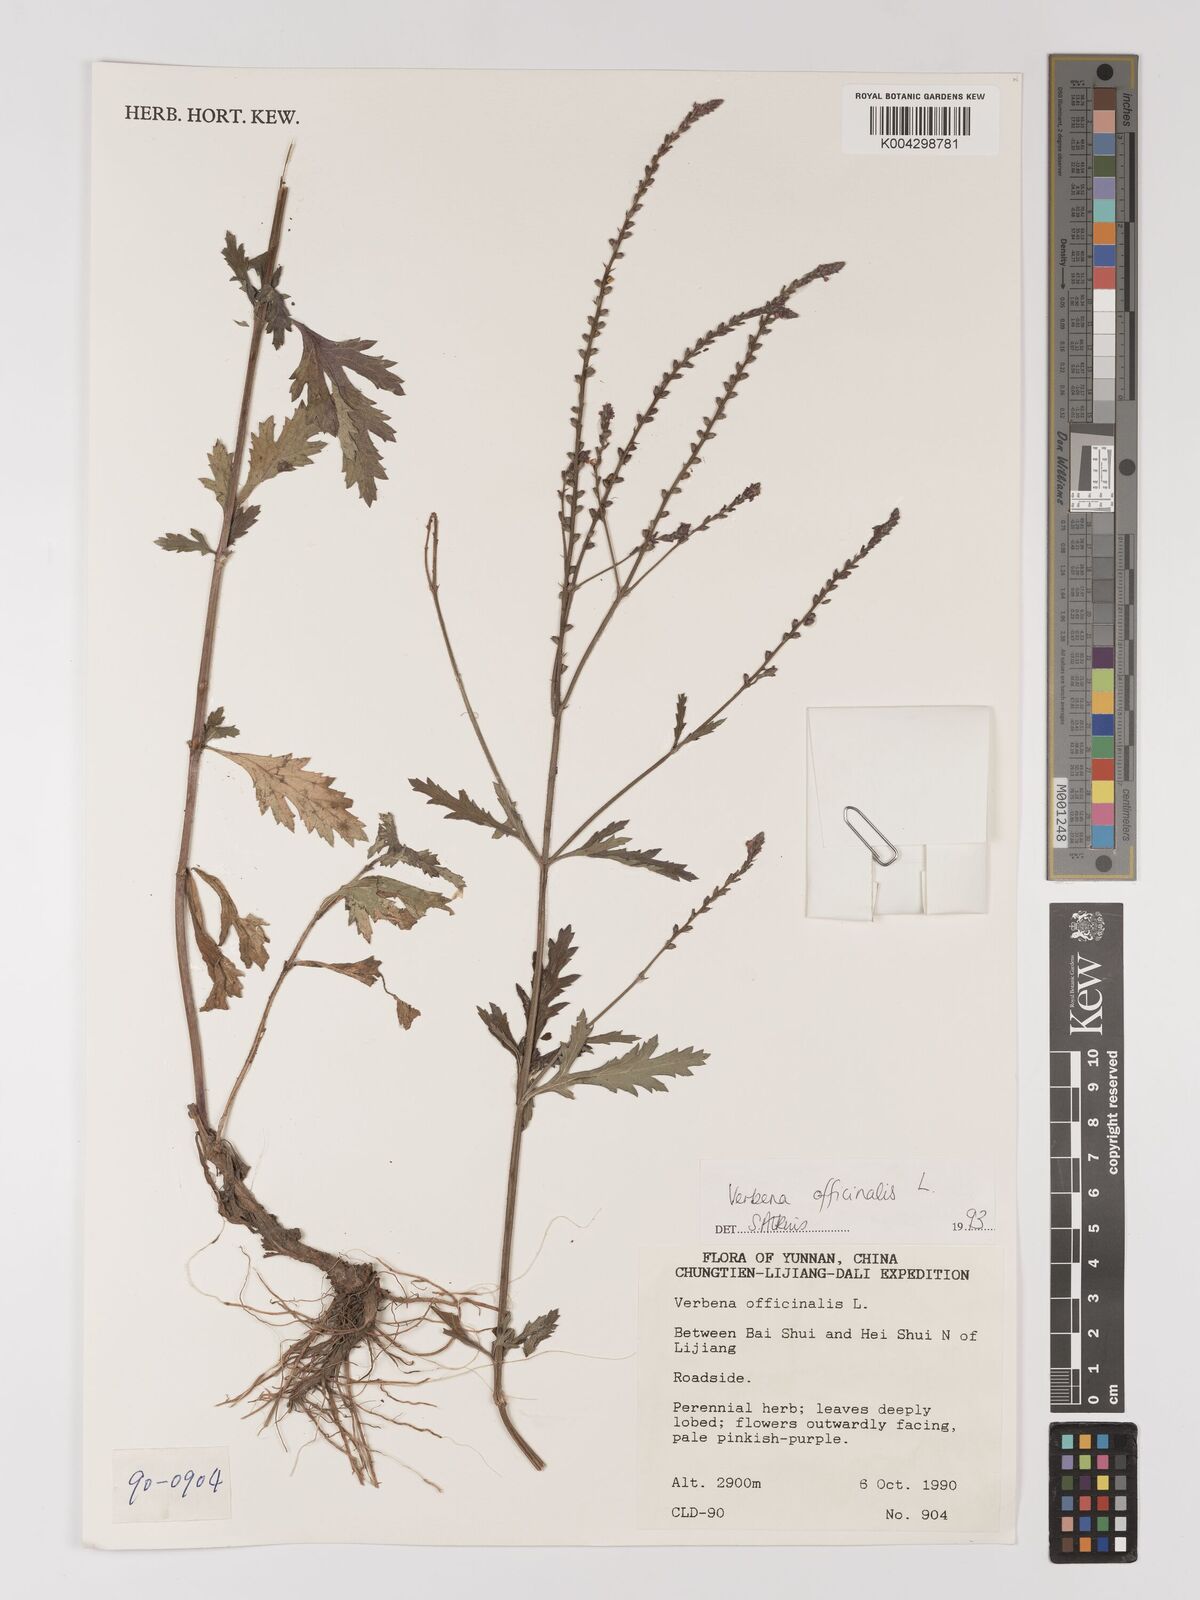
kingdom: Plantae
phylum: Tracheophyta
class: Magnoliopsida
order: Lamiales
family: Verbenaceae
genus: Verbena
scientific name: Verbena officinalis
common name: Vervain
